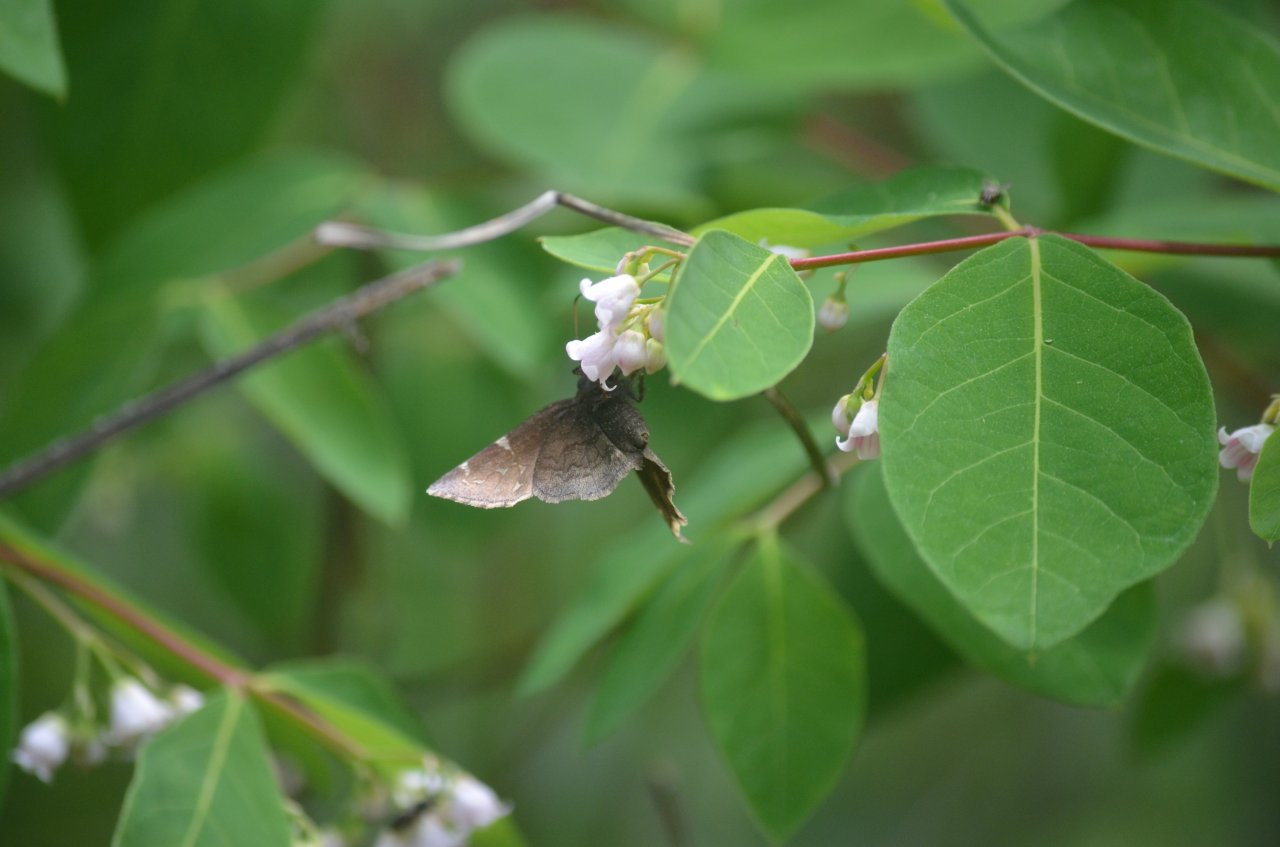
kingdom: Animalia
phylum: Arthropoda
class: Insecta
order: Lepidoptera
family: Hesperiidae
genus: Autochton
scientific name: Autochton
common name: Northern Cloudywing
